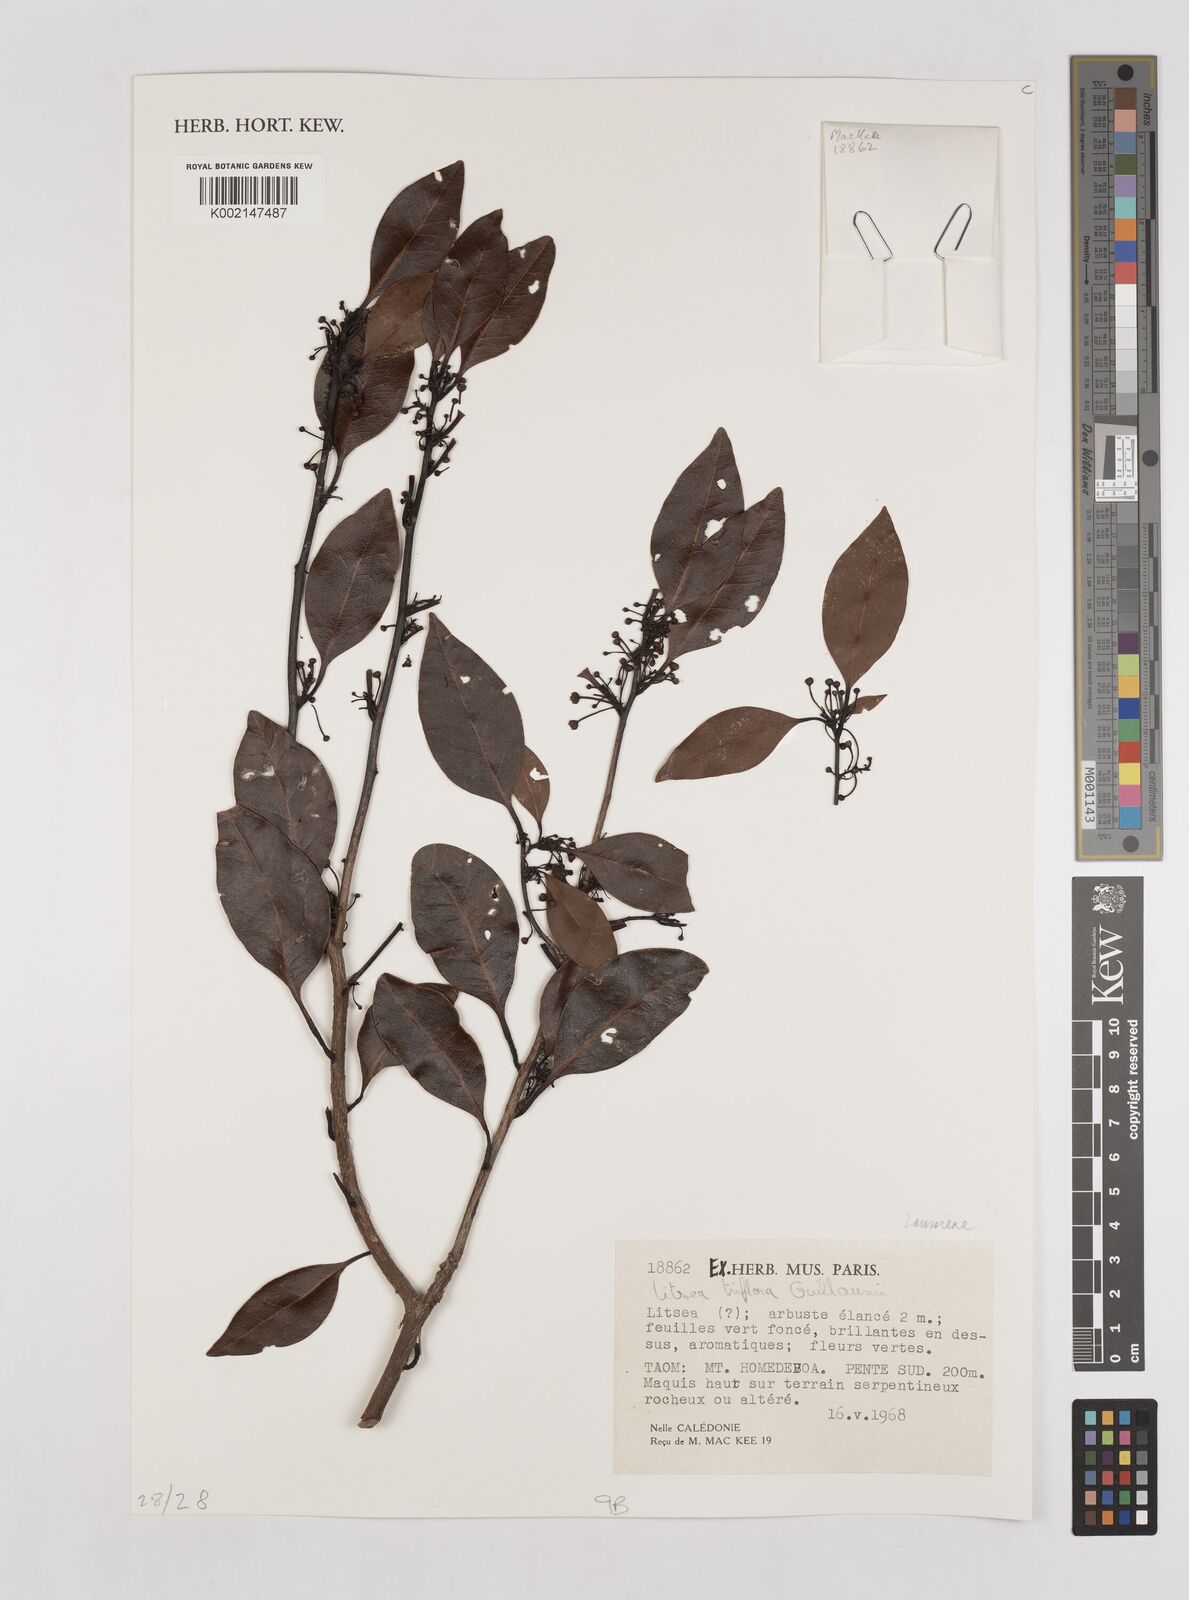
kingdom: Plantae
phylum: Tracheophyta
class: Magnoliopsida
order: Laurales
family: Lauraceae
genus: Litsea
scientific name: Litsea triflora
